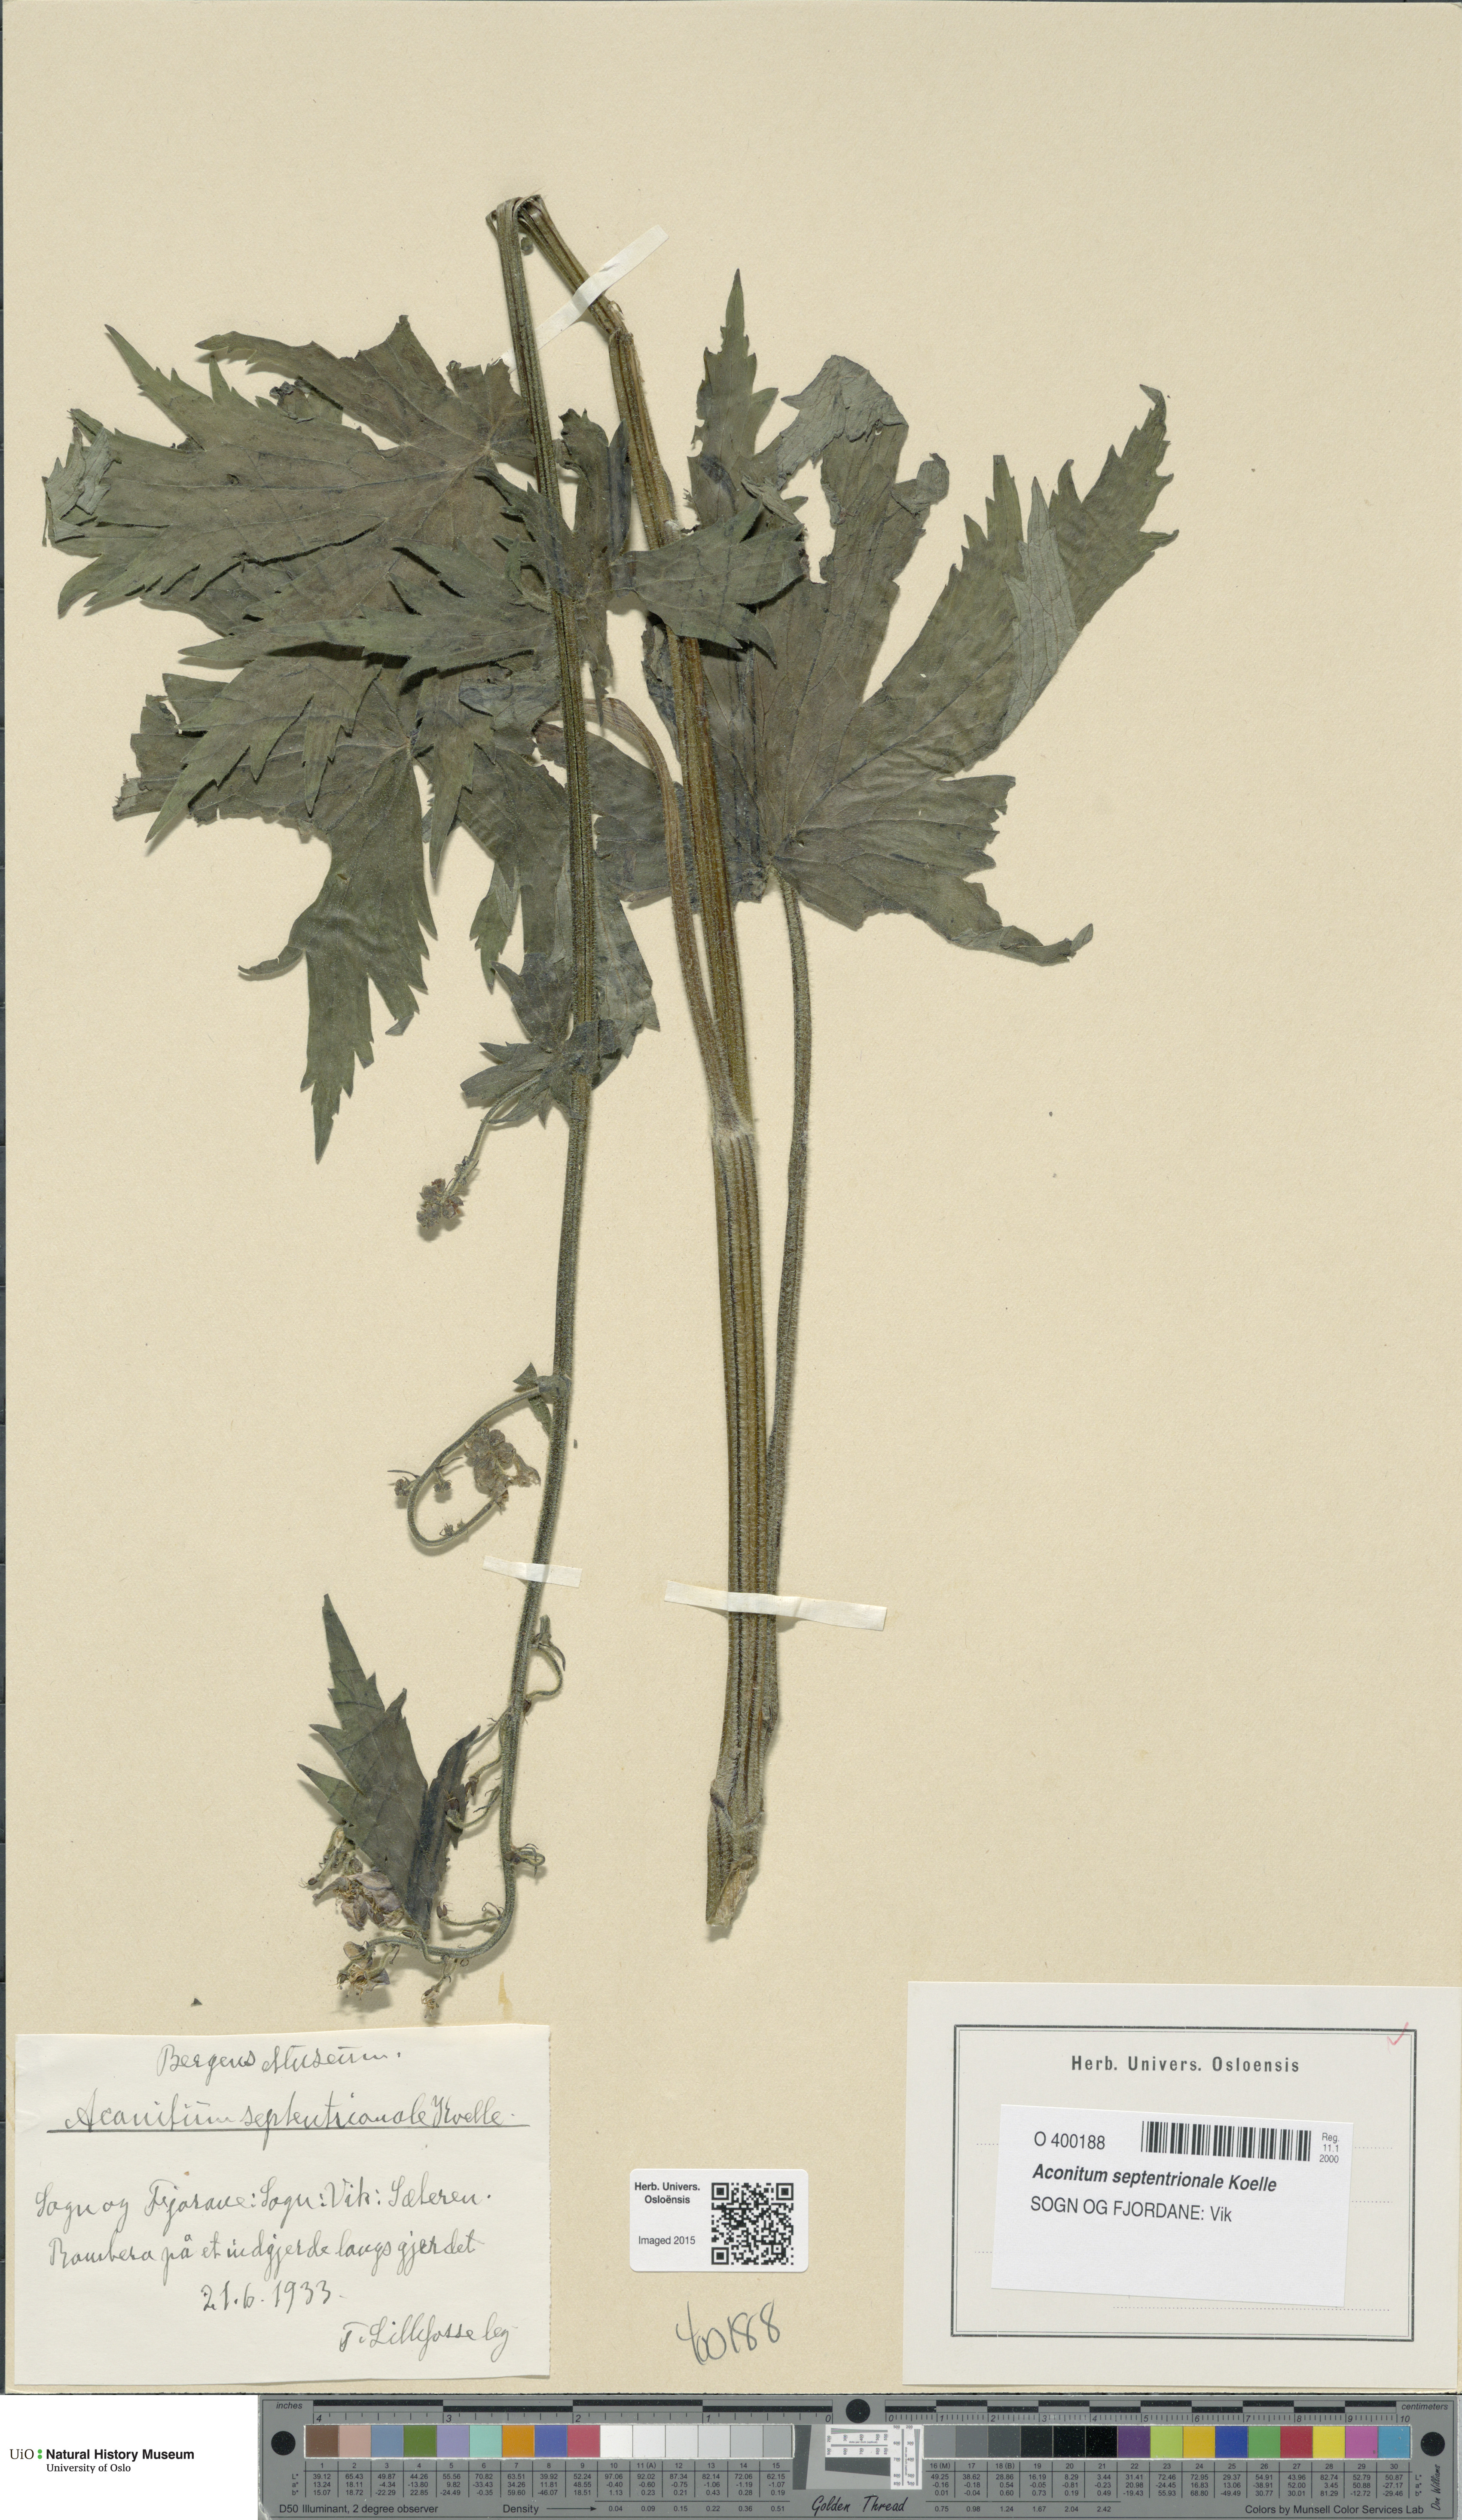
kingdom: Plantae
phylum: Tracheophyta
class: Magnoliopsida
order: Ranunculales
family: Ranunculaceae
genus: Aconitum
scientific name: Aconitum septentrionale
